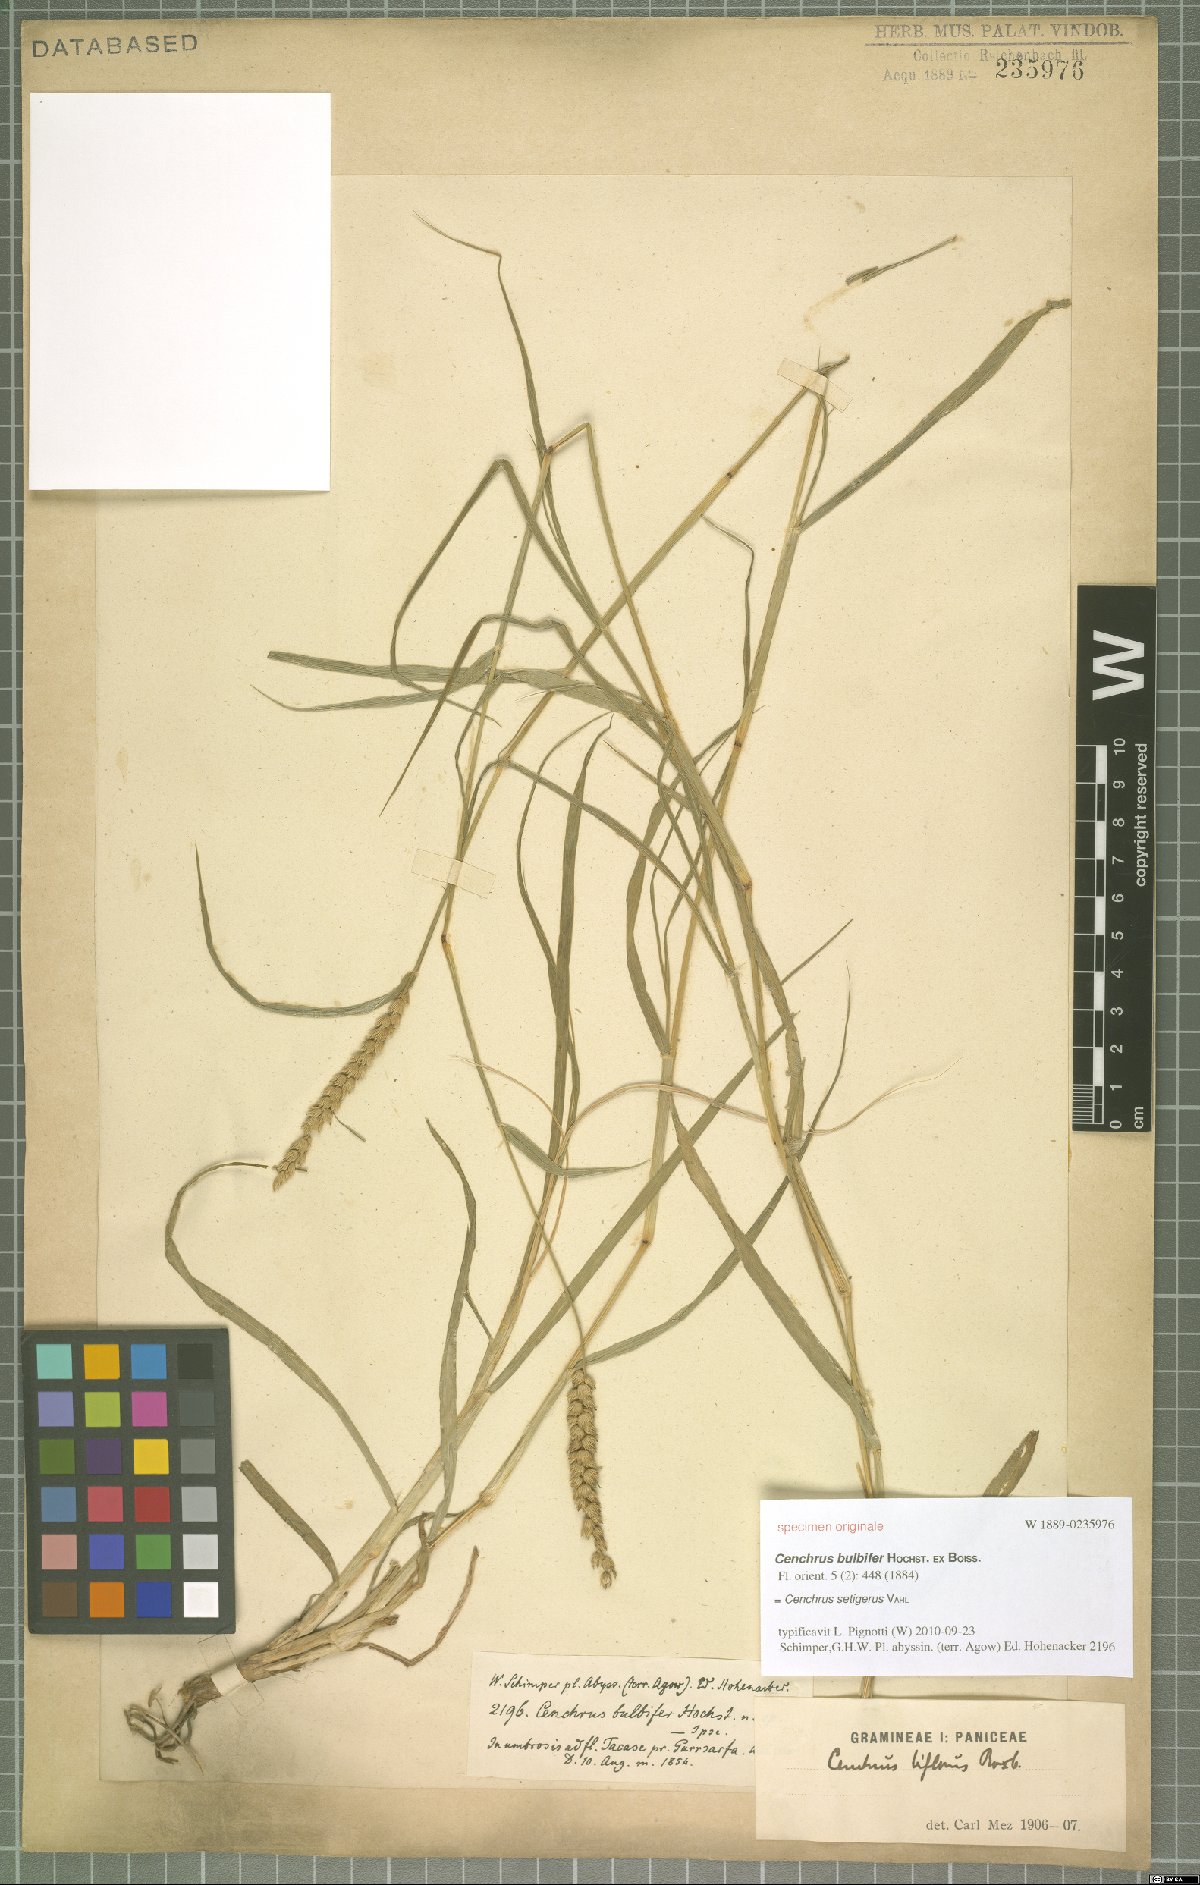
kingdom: Plantae
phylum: Tracheophyta
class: Liliopsida
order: Poales
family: Poaceae
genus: Cenchrus
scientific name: Cenchrus setigerus
